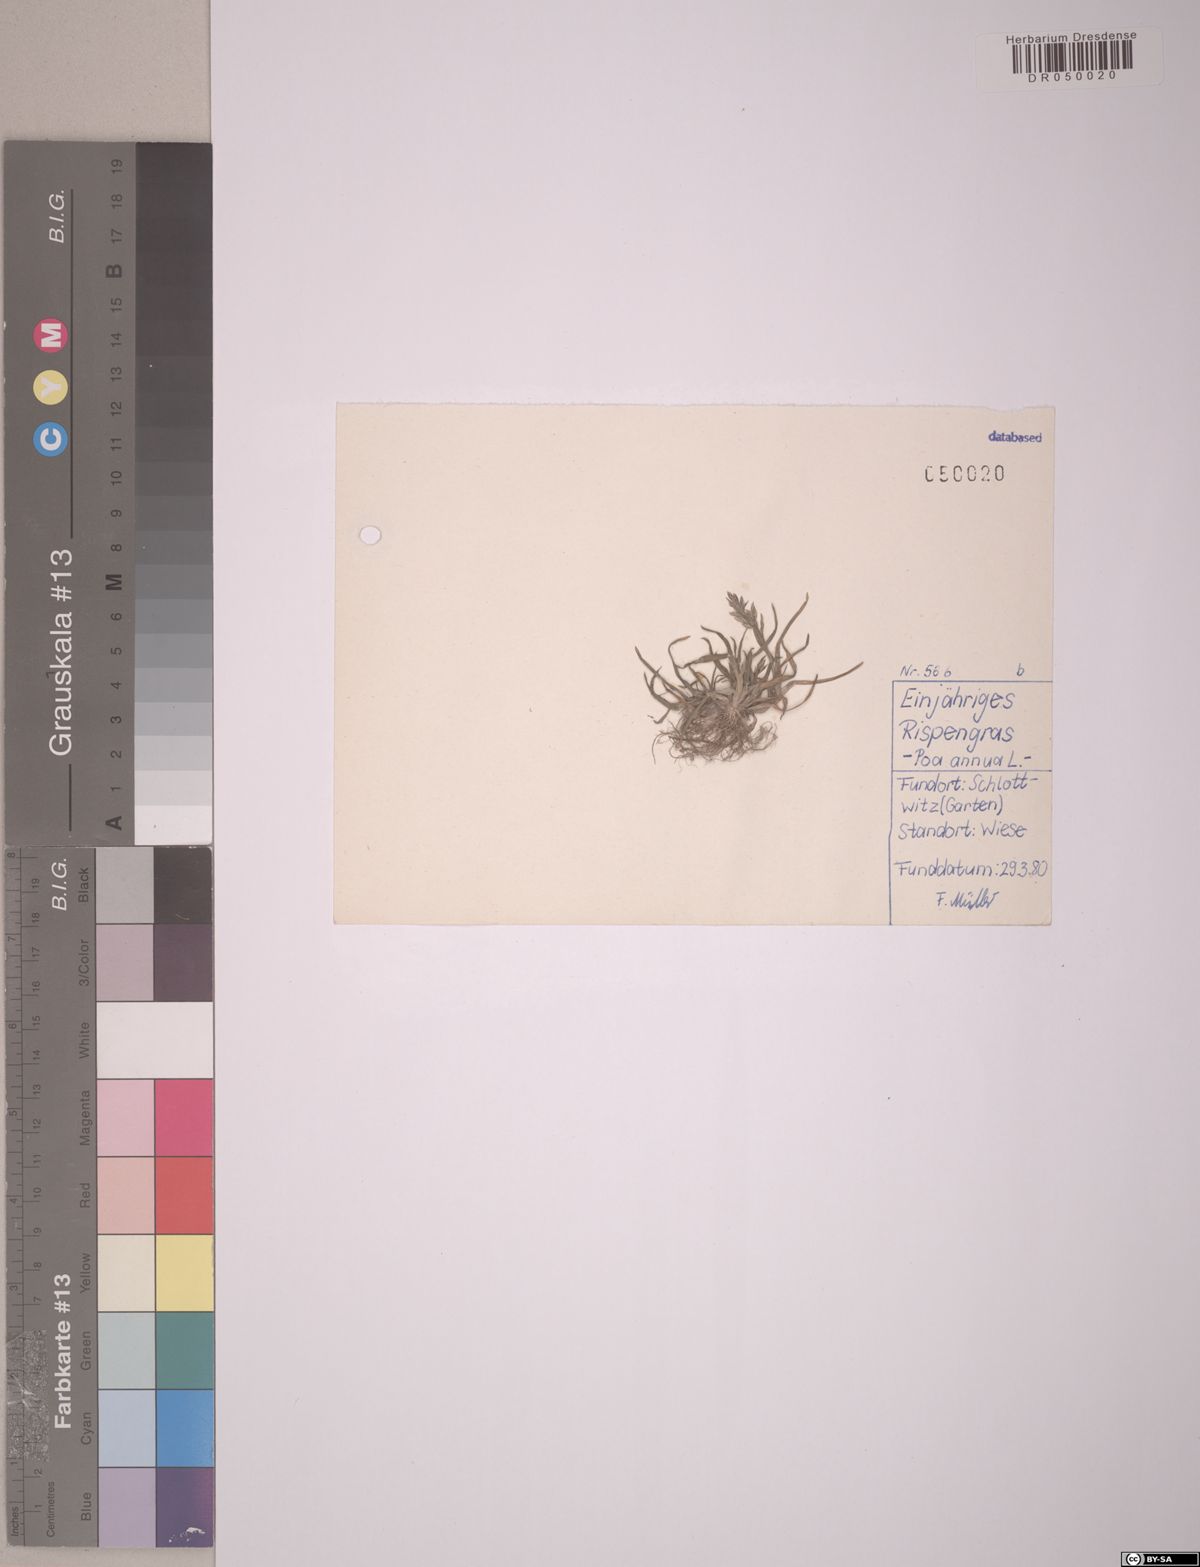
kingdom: Plantae
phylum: Tracheophyta
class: Liliopsida
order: Poales
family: Poaceae
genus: Poa
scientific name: Poa annua
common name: Annual bluegrass
